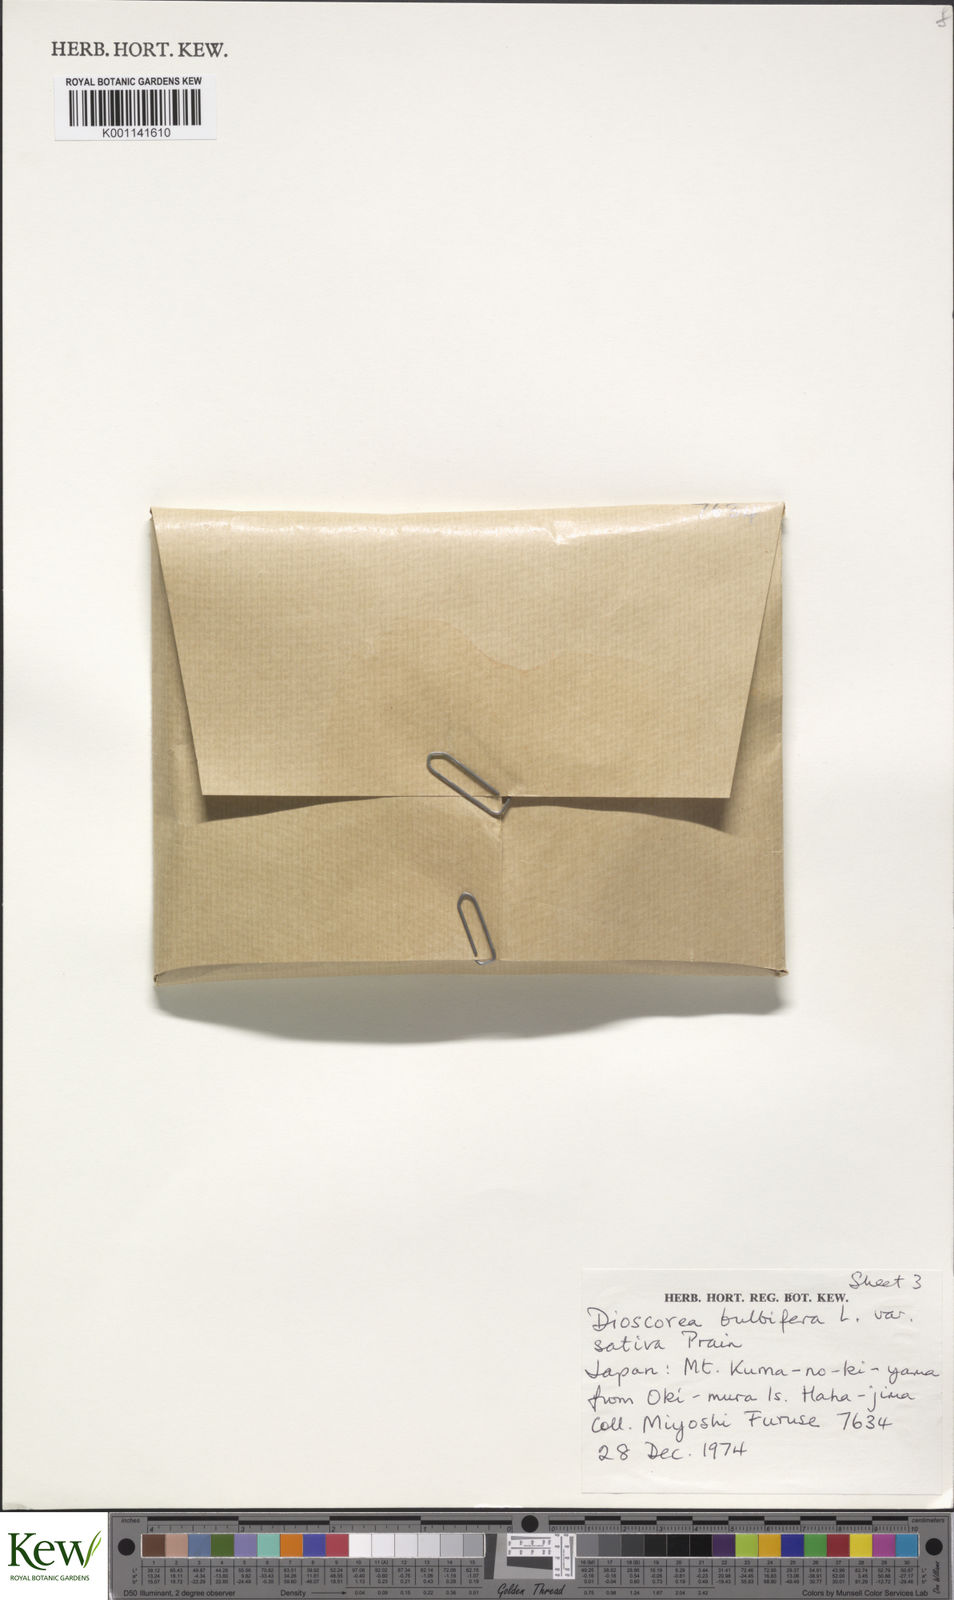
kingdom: Plantae
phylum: Tracheophyta
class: Liliopsida
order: Dioscoreales
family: Dioscoreaceae
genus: Dioscorea
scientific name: Dioscorea bulbifera
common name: Air yam
